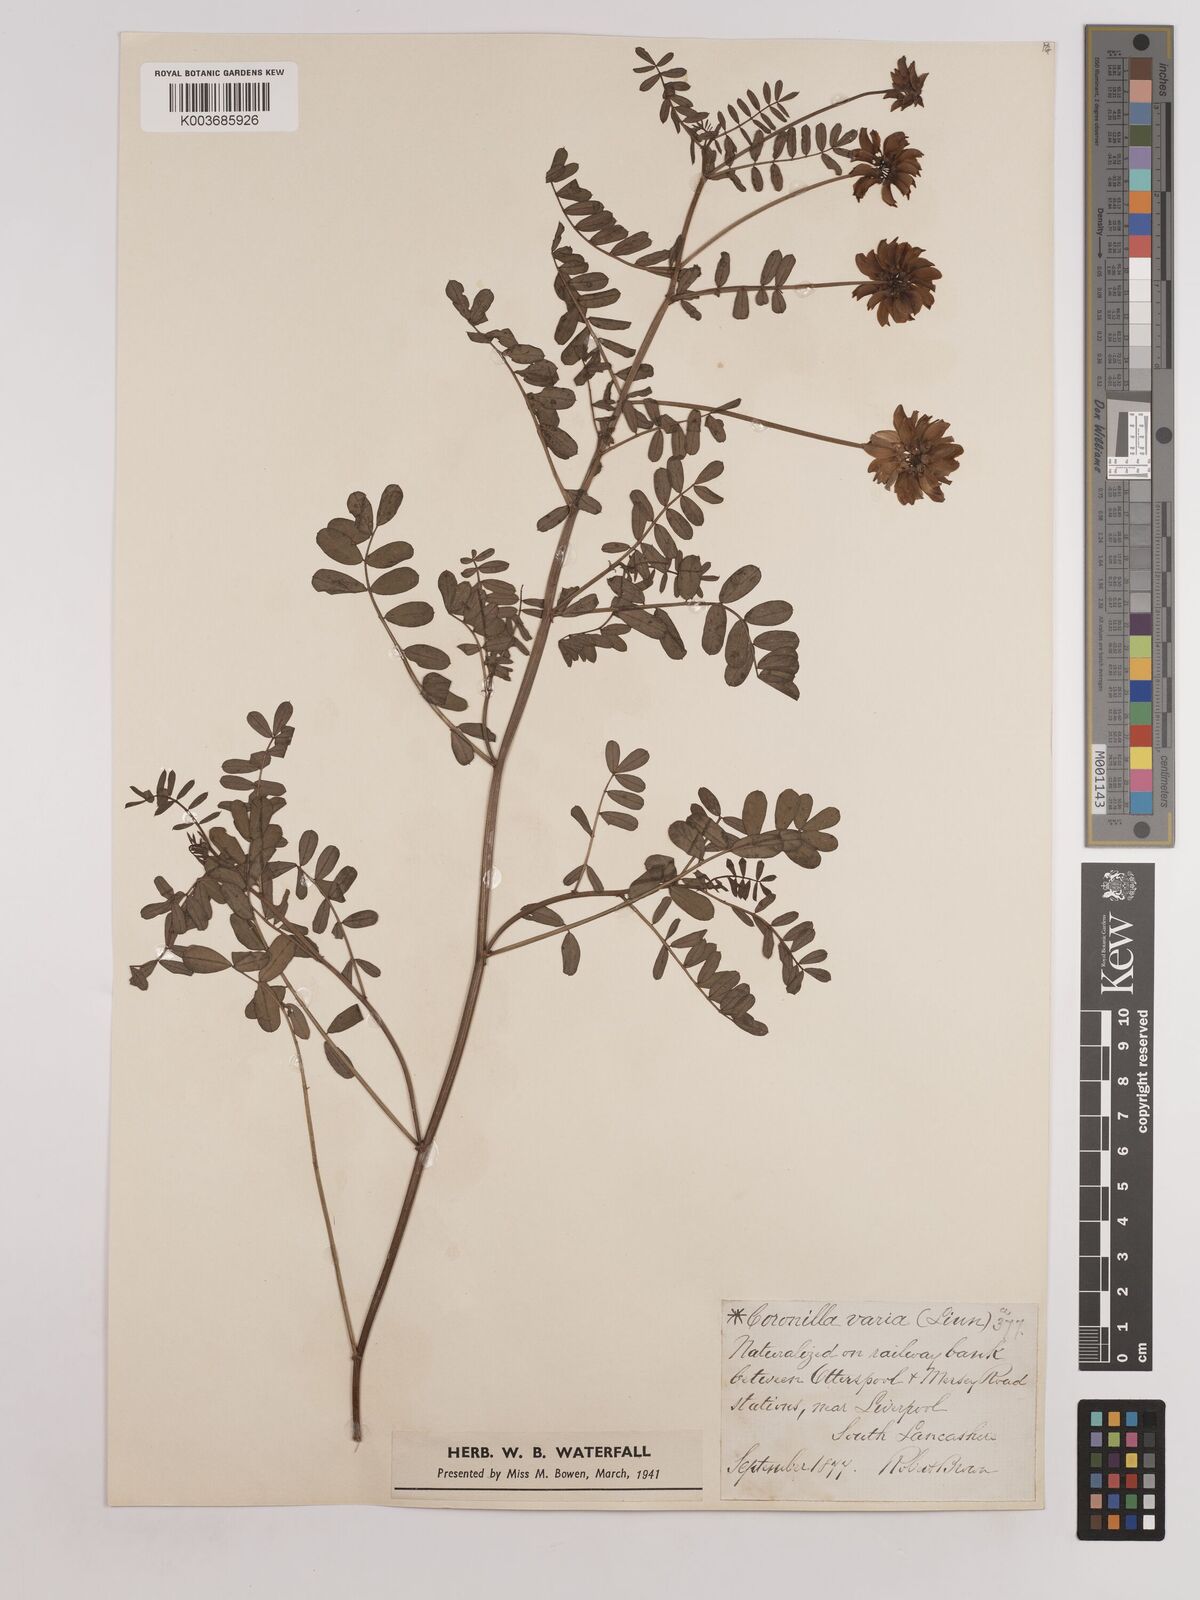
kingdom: Plantae
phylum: Tracheophyta
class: Magnoliopsida
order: Fabales
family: Fabaceae
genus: Coronilla
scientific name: Coronilla varia
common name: Crownvetch
